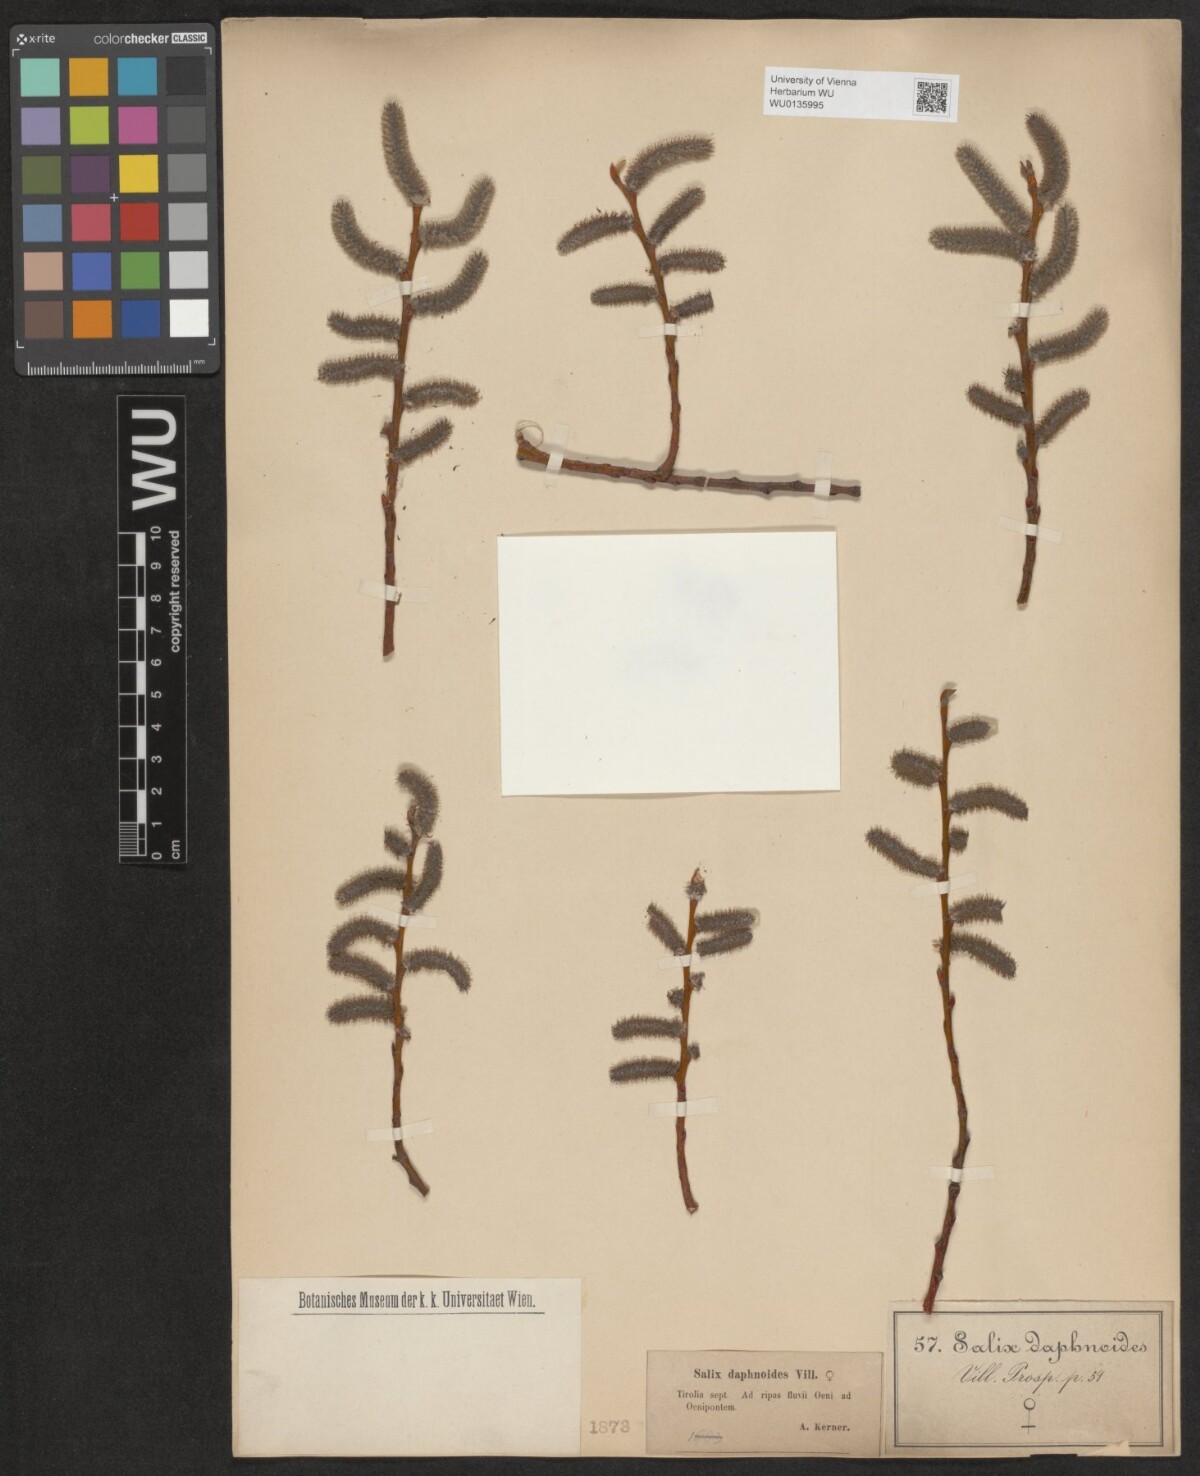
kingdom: Plantae
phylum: Tracheophyta
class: Magnoliopsida
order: Malpighiales
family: Salicaceae
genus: Salix
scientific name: Salix daphnoides
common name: European violet-willow
